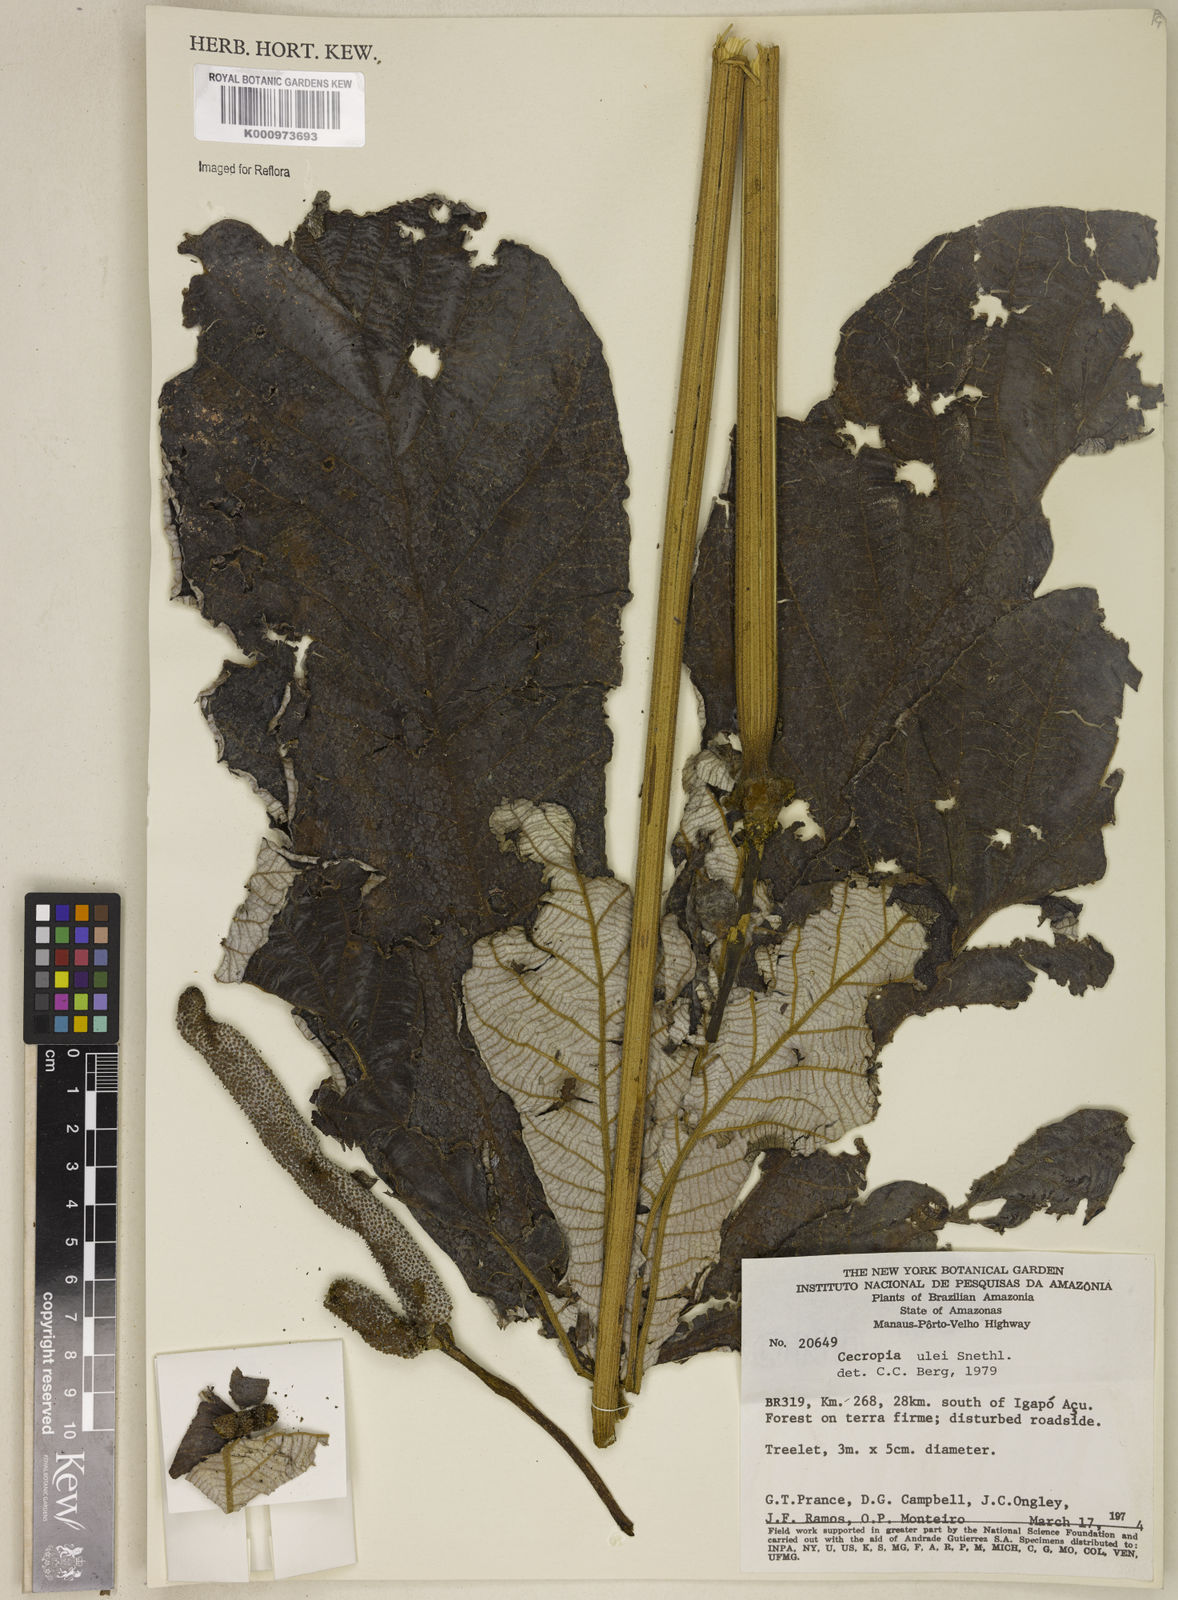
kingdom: Plantae
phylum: Tracheophyta
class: Magnoliopsida
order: Rosales
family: Urticaceae
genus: Cecropia
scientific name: Cecropia ulei
